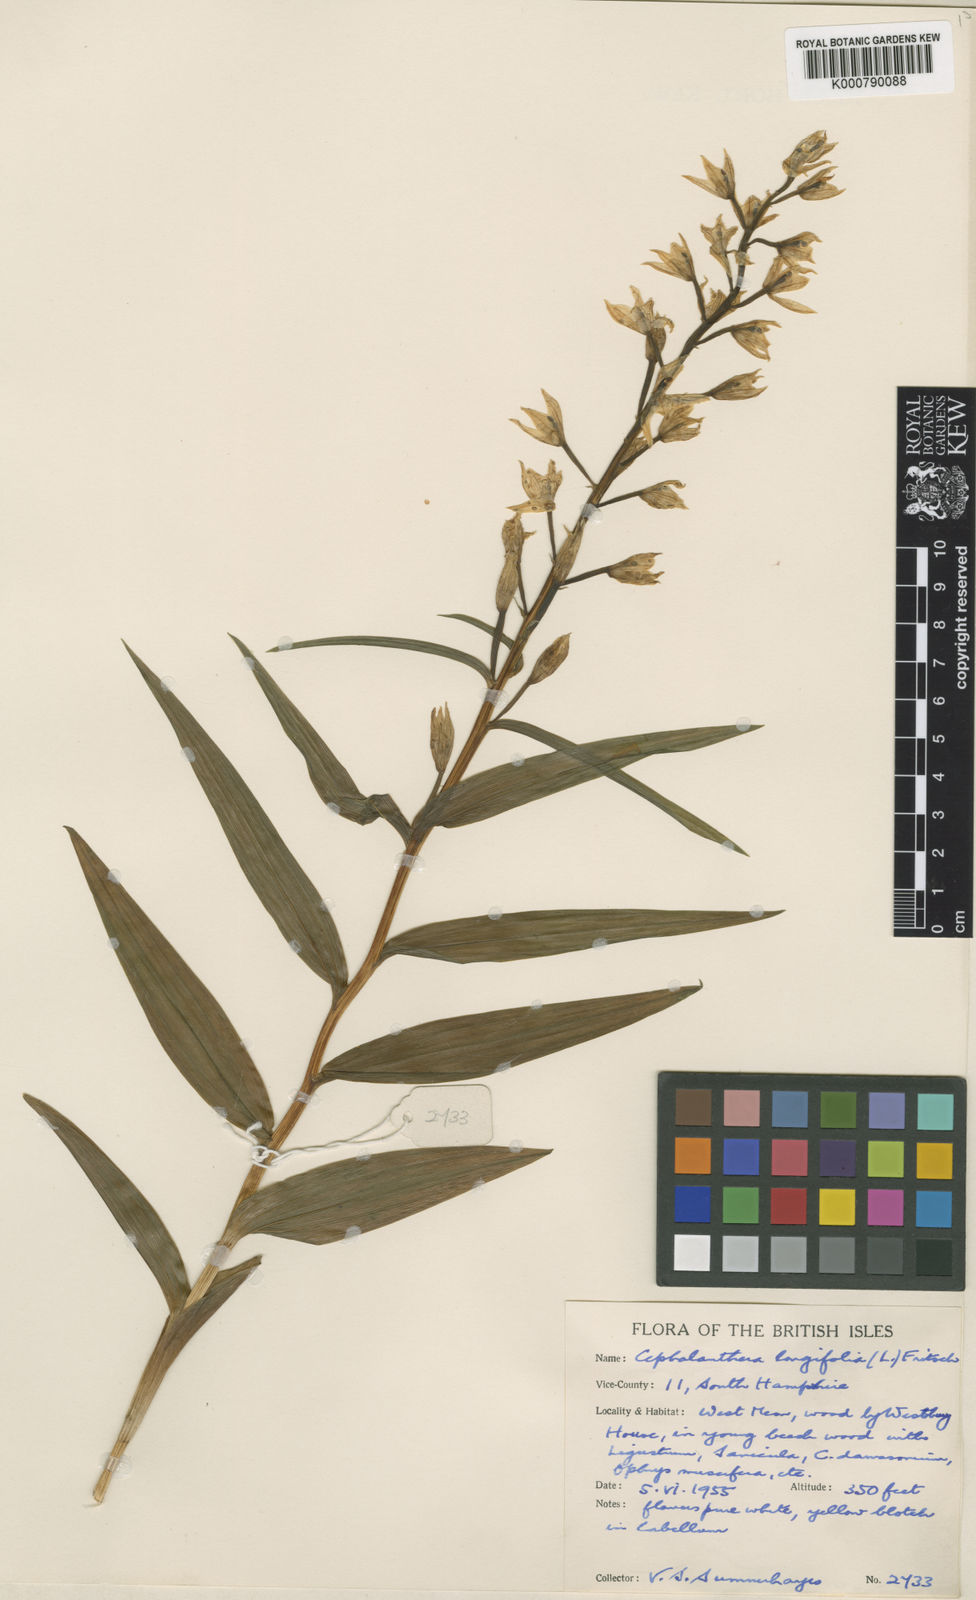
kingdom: Plantae
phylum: Tracheophyta
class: Liliopsida
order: Asparagales
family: Orchidaceae
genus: Cephalanthera
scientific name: Cephalanthera longifolia
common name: Narrow-leaved helleborine
